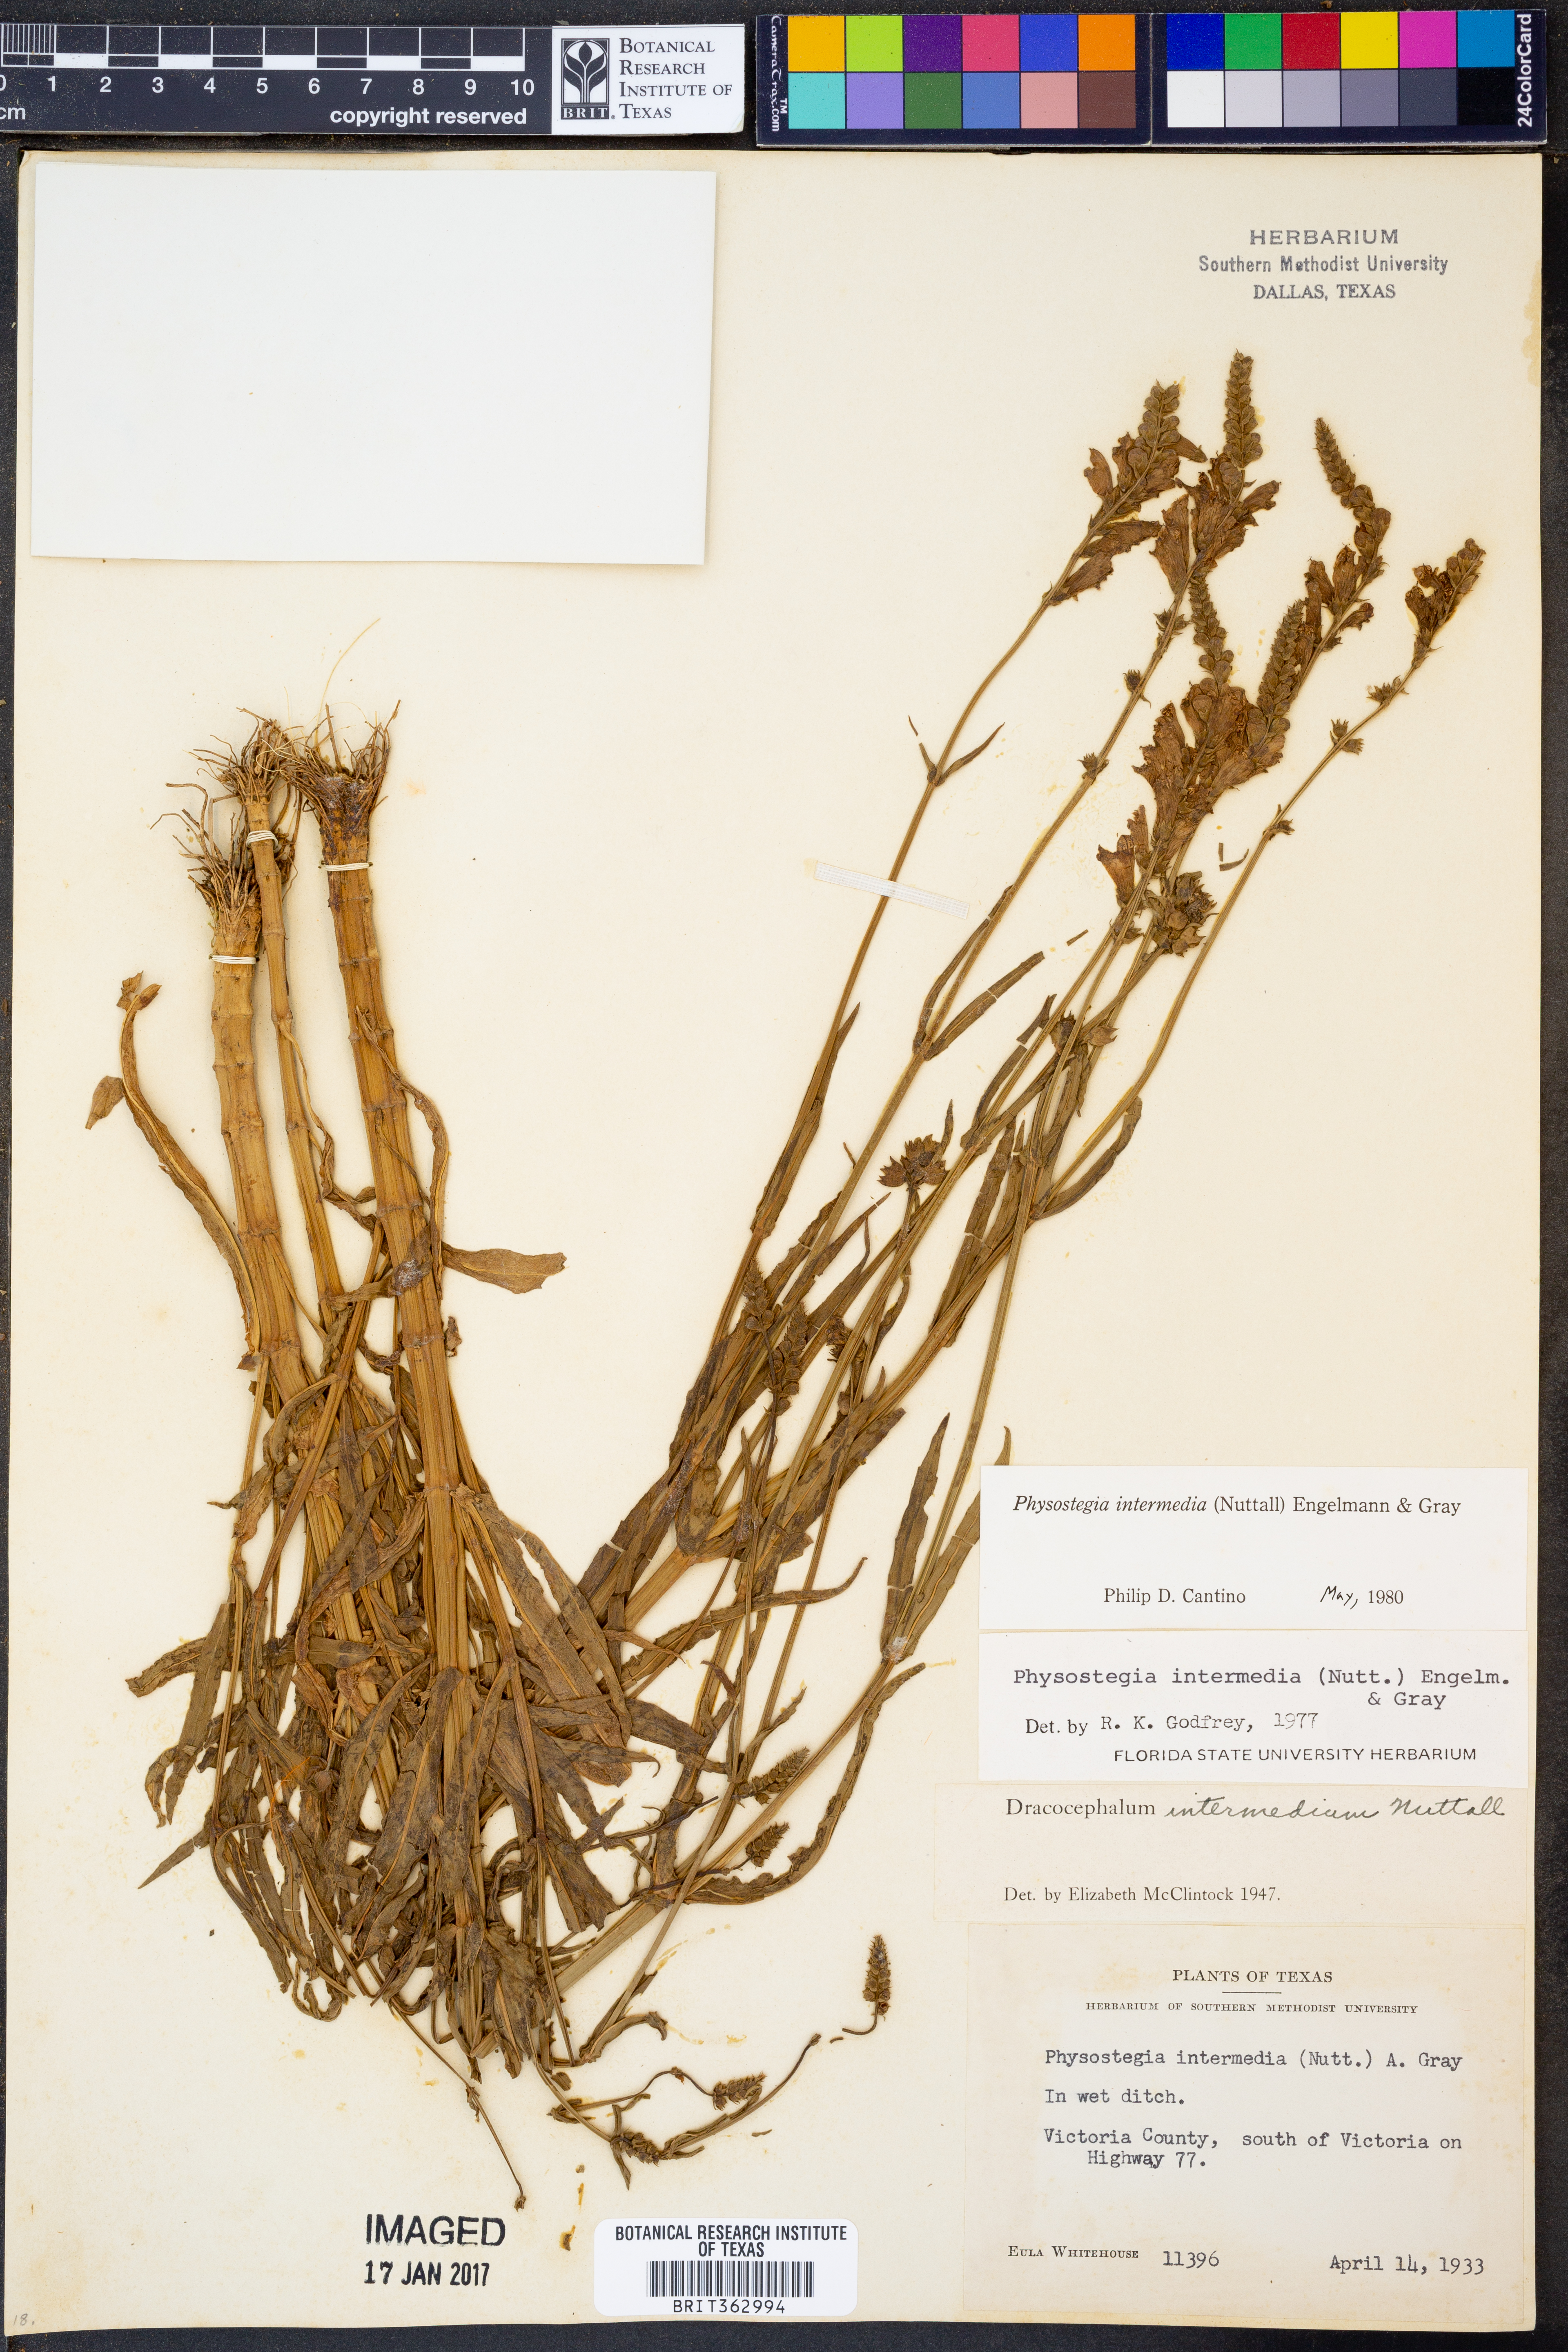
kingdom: Plantae
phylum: Tracheophyta
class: Magnoliopsida
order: Lamiales
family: Lamiaceae
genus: Physostegia
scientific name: Physostegia intermedia
